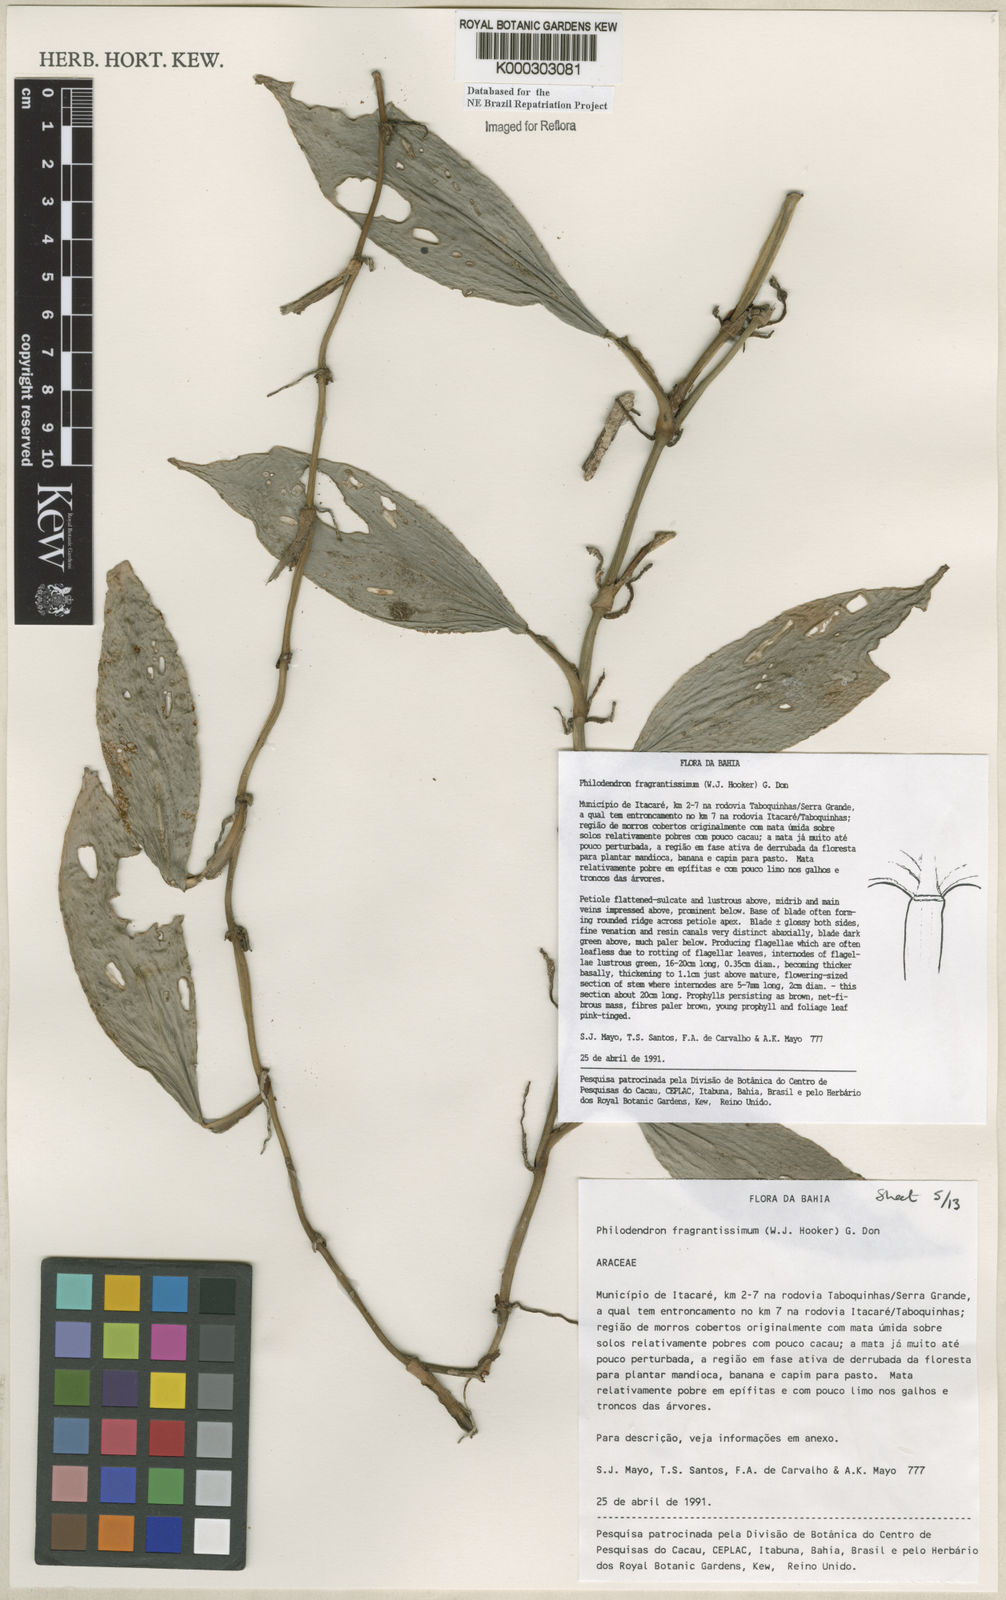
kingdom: Plantae
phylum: Tracheophyta
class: Liliopsida
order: Alismatales
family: Araceae
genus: Philodendron
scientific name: Philodendron fragrantissimum
